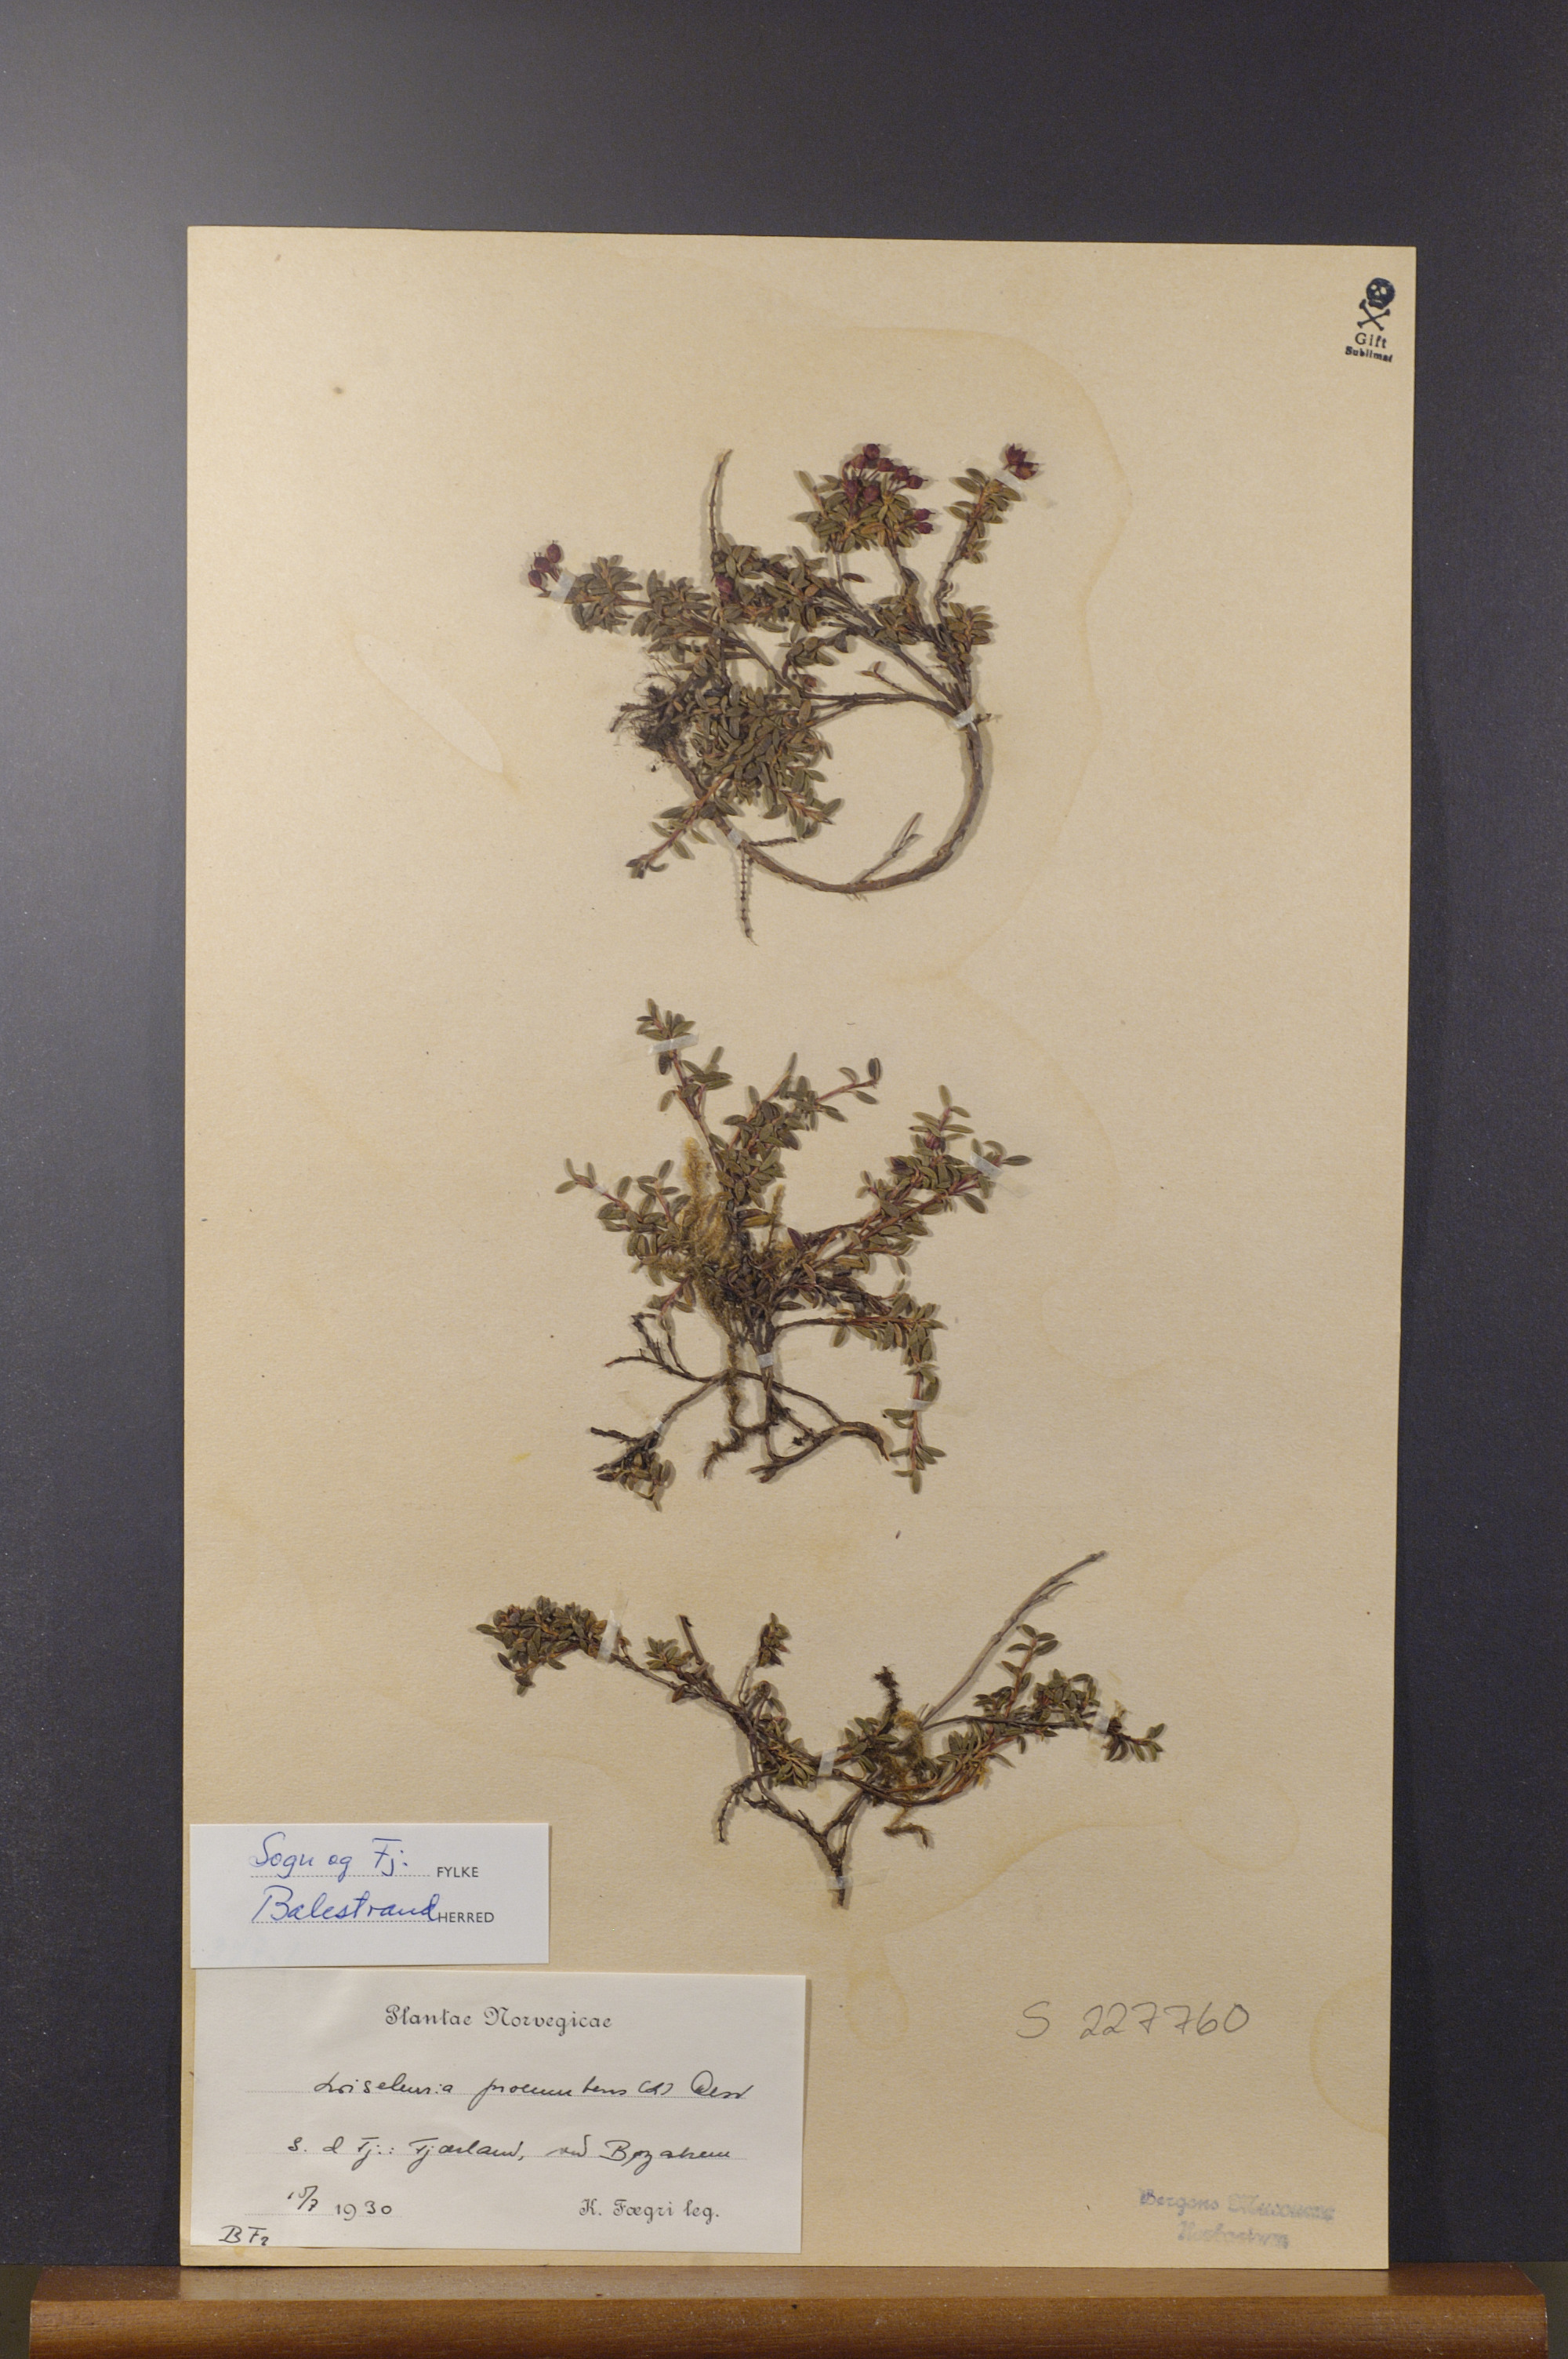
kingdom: Plantae
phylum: Tracheophyta
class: Magnoliopsida
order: Ericales
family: Ericaceae
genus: Kalmia
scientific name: Kalmia procumbens
